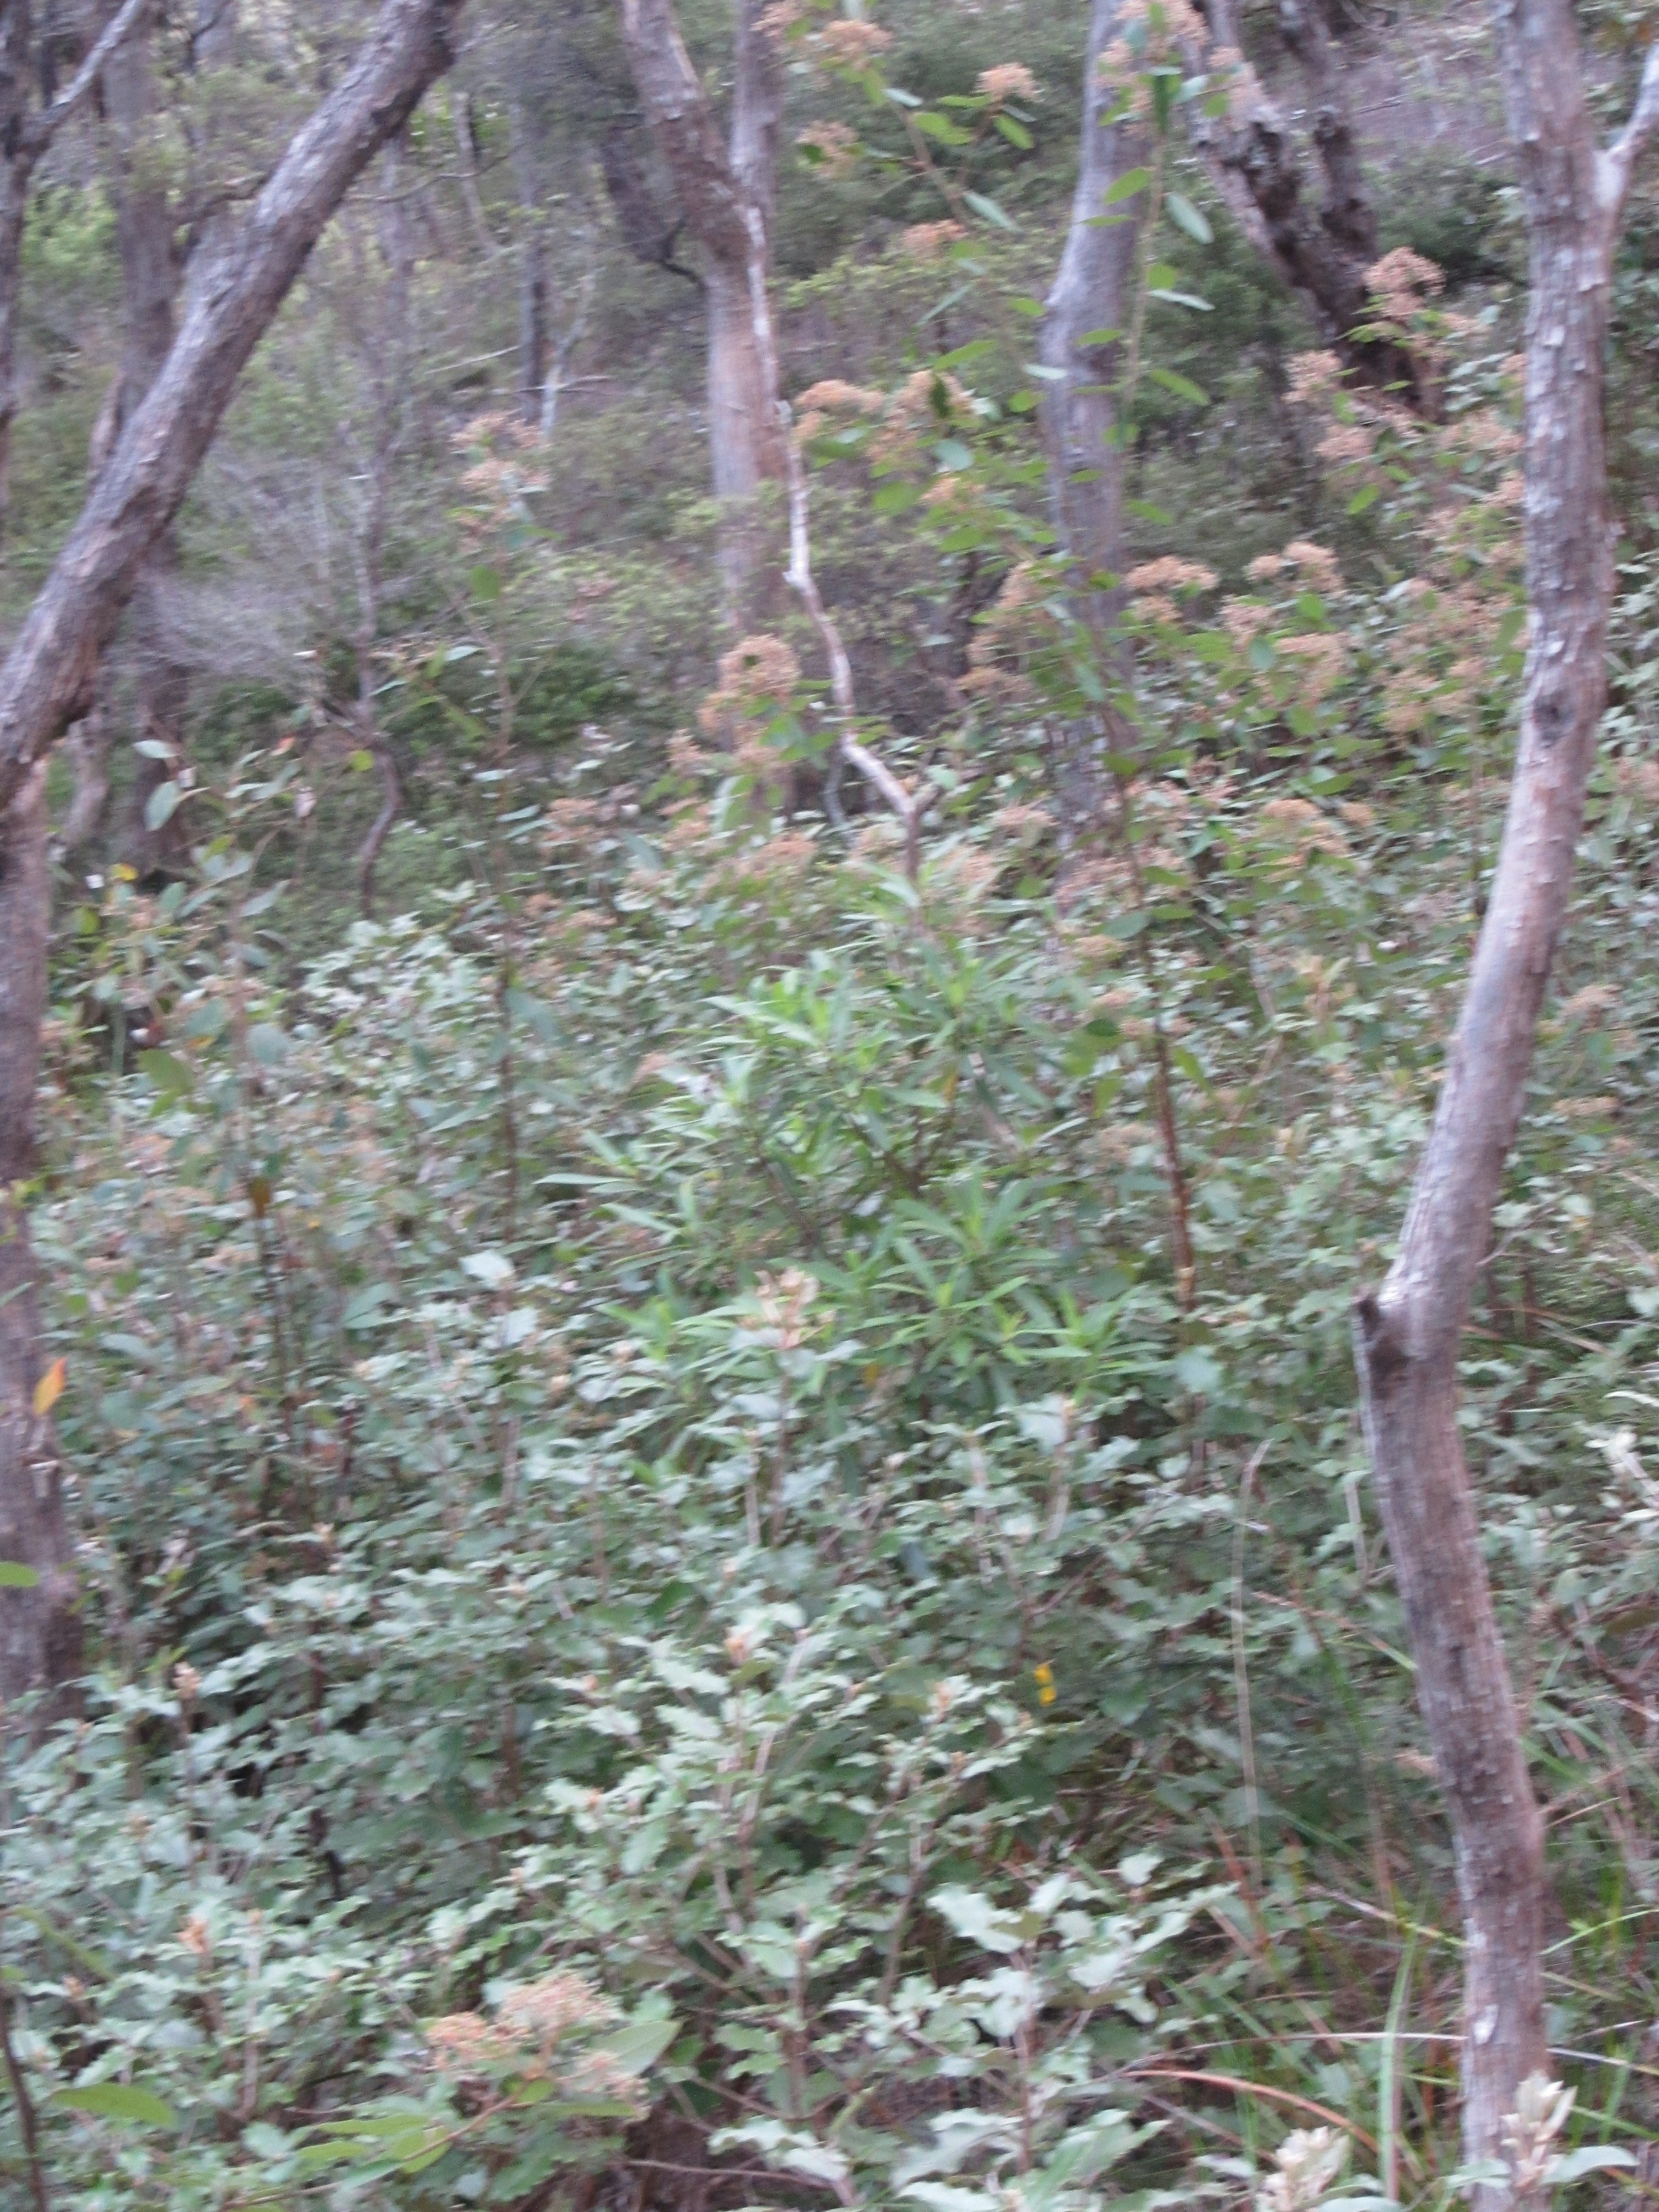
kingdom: Plantae
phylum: Tracheophyta
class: Magnoliopsida
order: Rosales
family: Rhamnaceae
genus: Pomaderris
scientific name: Pomaderris hamiltonii
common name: Pale-flowered kumarahou
